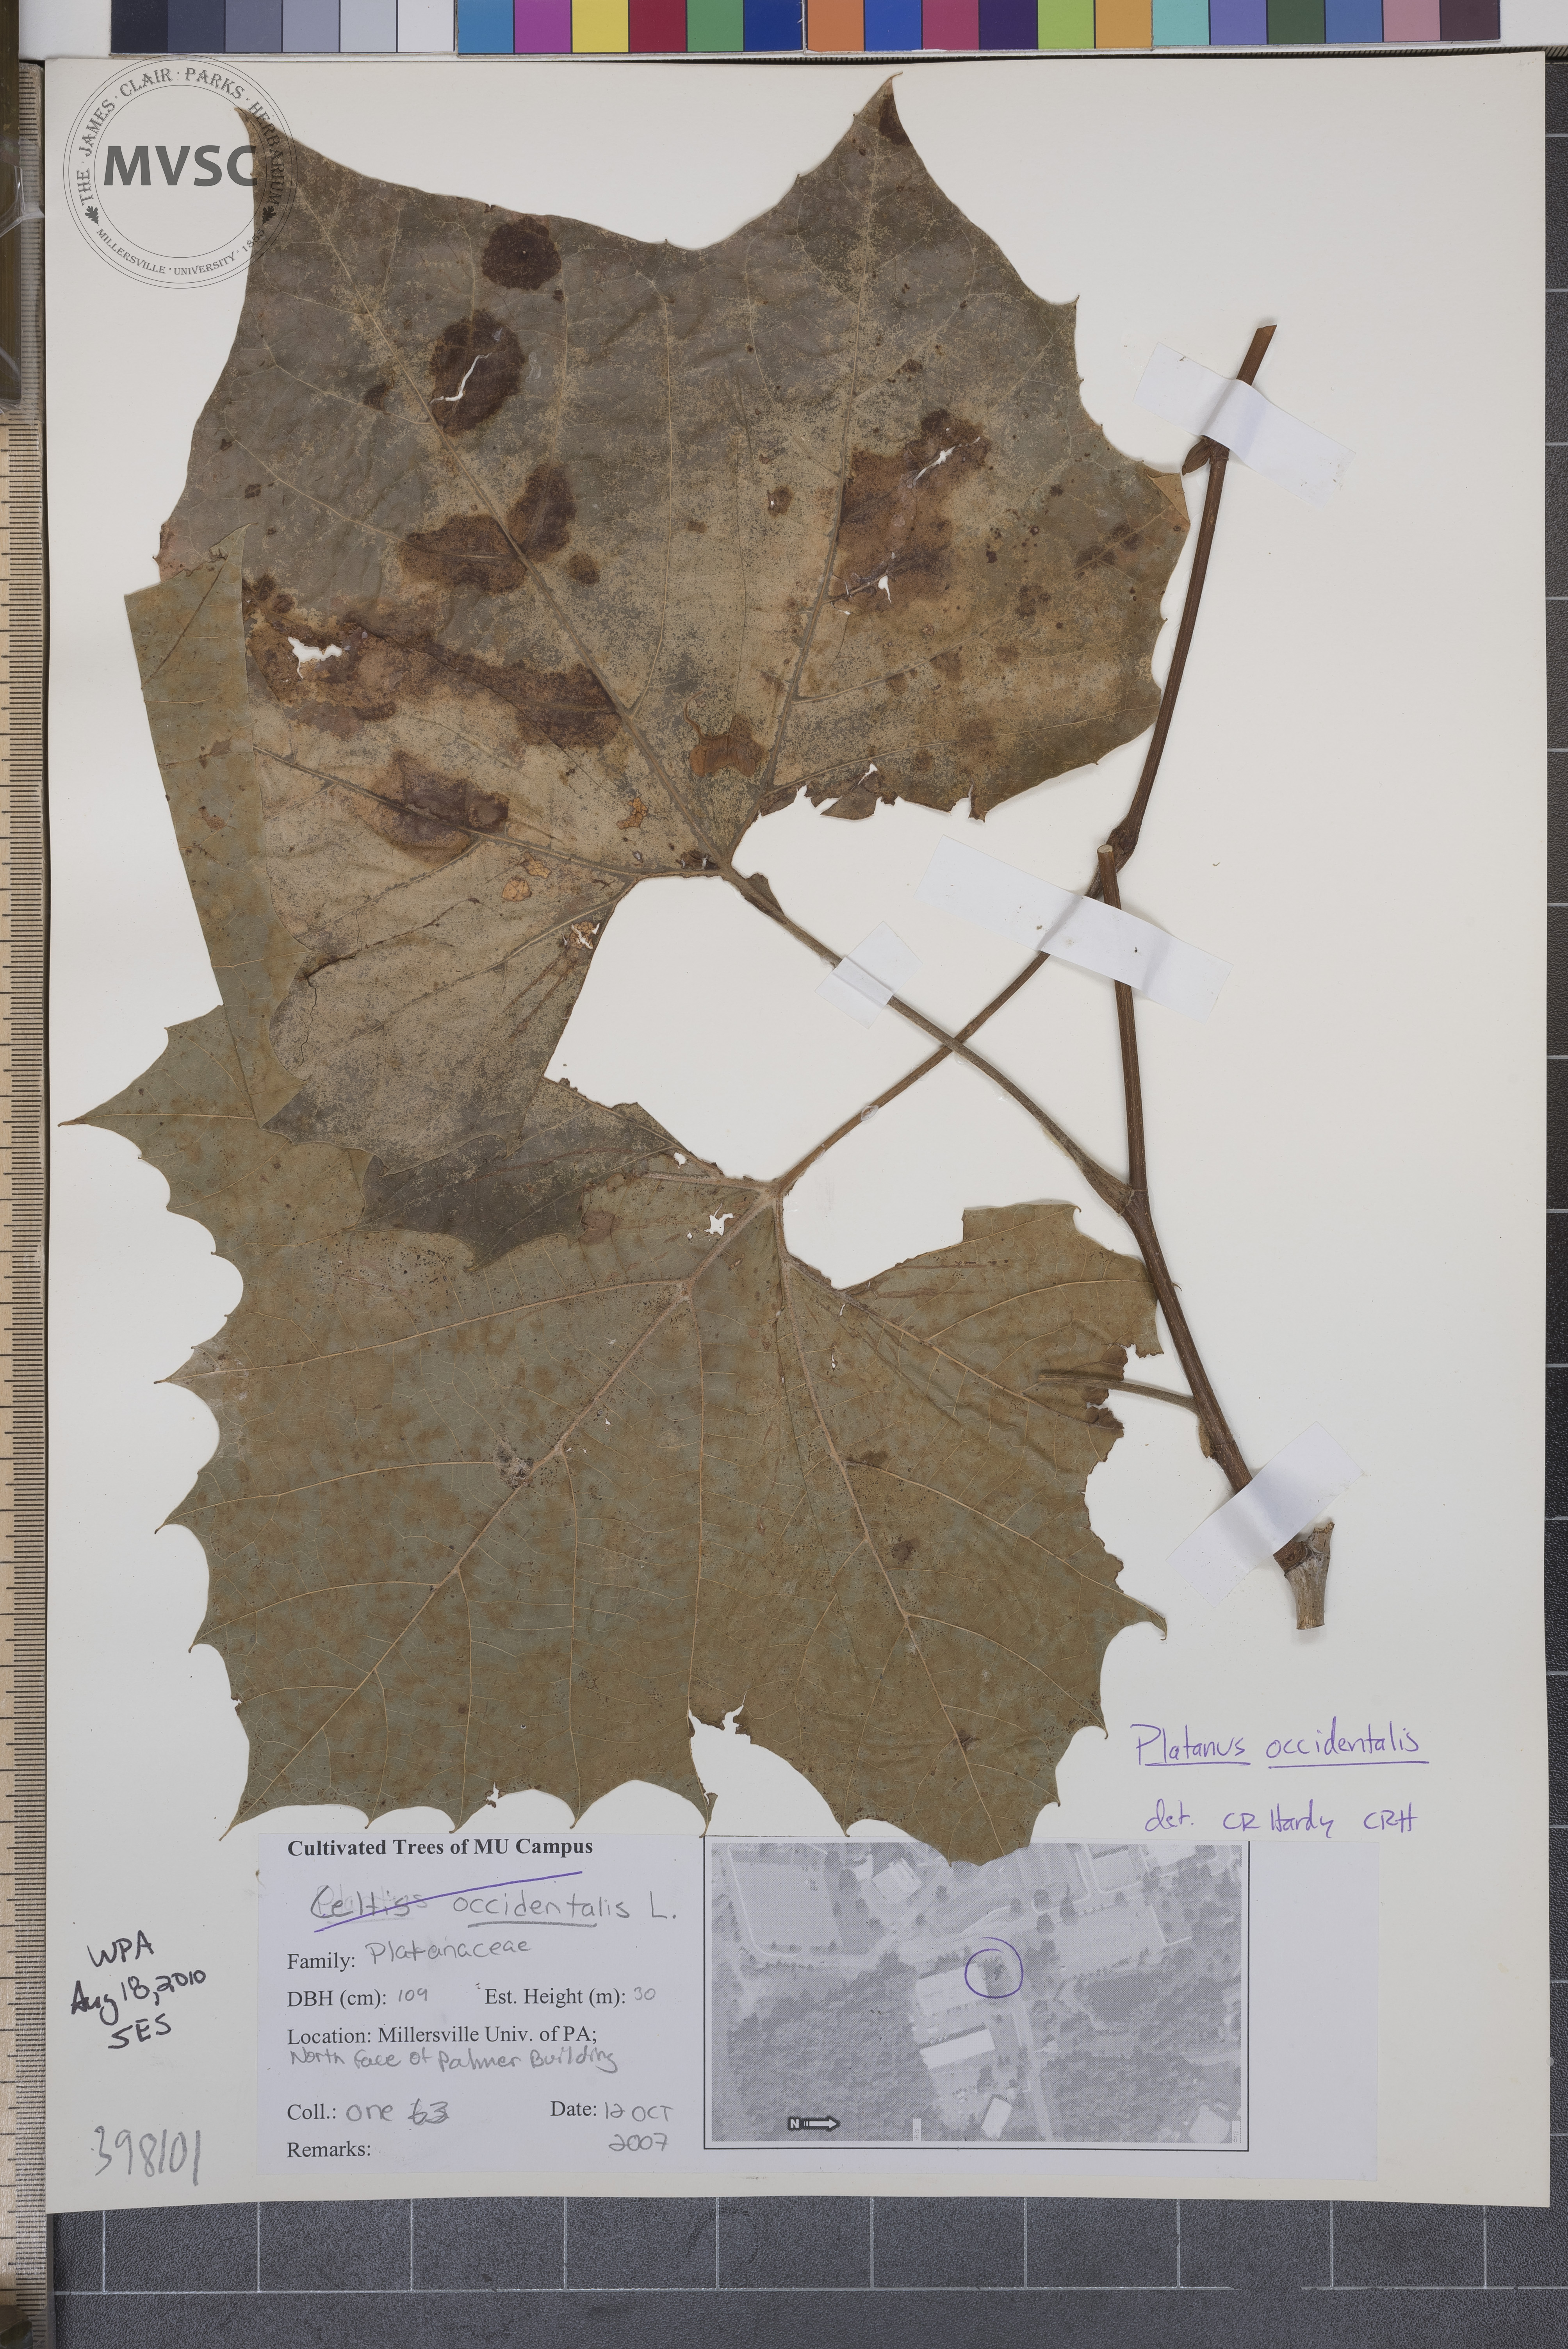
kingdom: Plantae
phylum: Tracheophyta
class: Magnoliopsida
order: Proteales
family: Platanaceae
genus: Platanus
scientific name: Platanus occidentalis
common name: Sycamore
